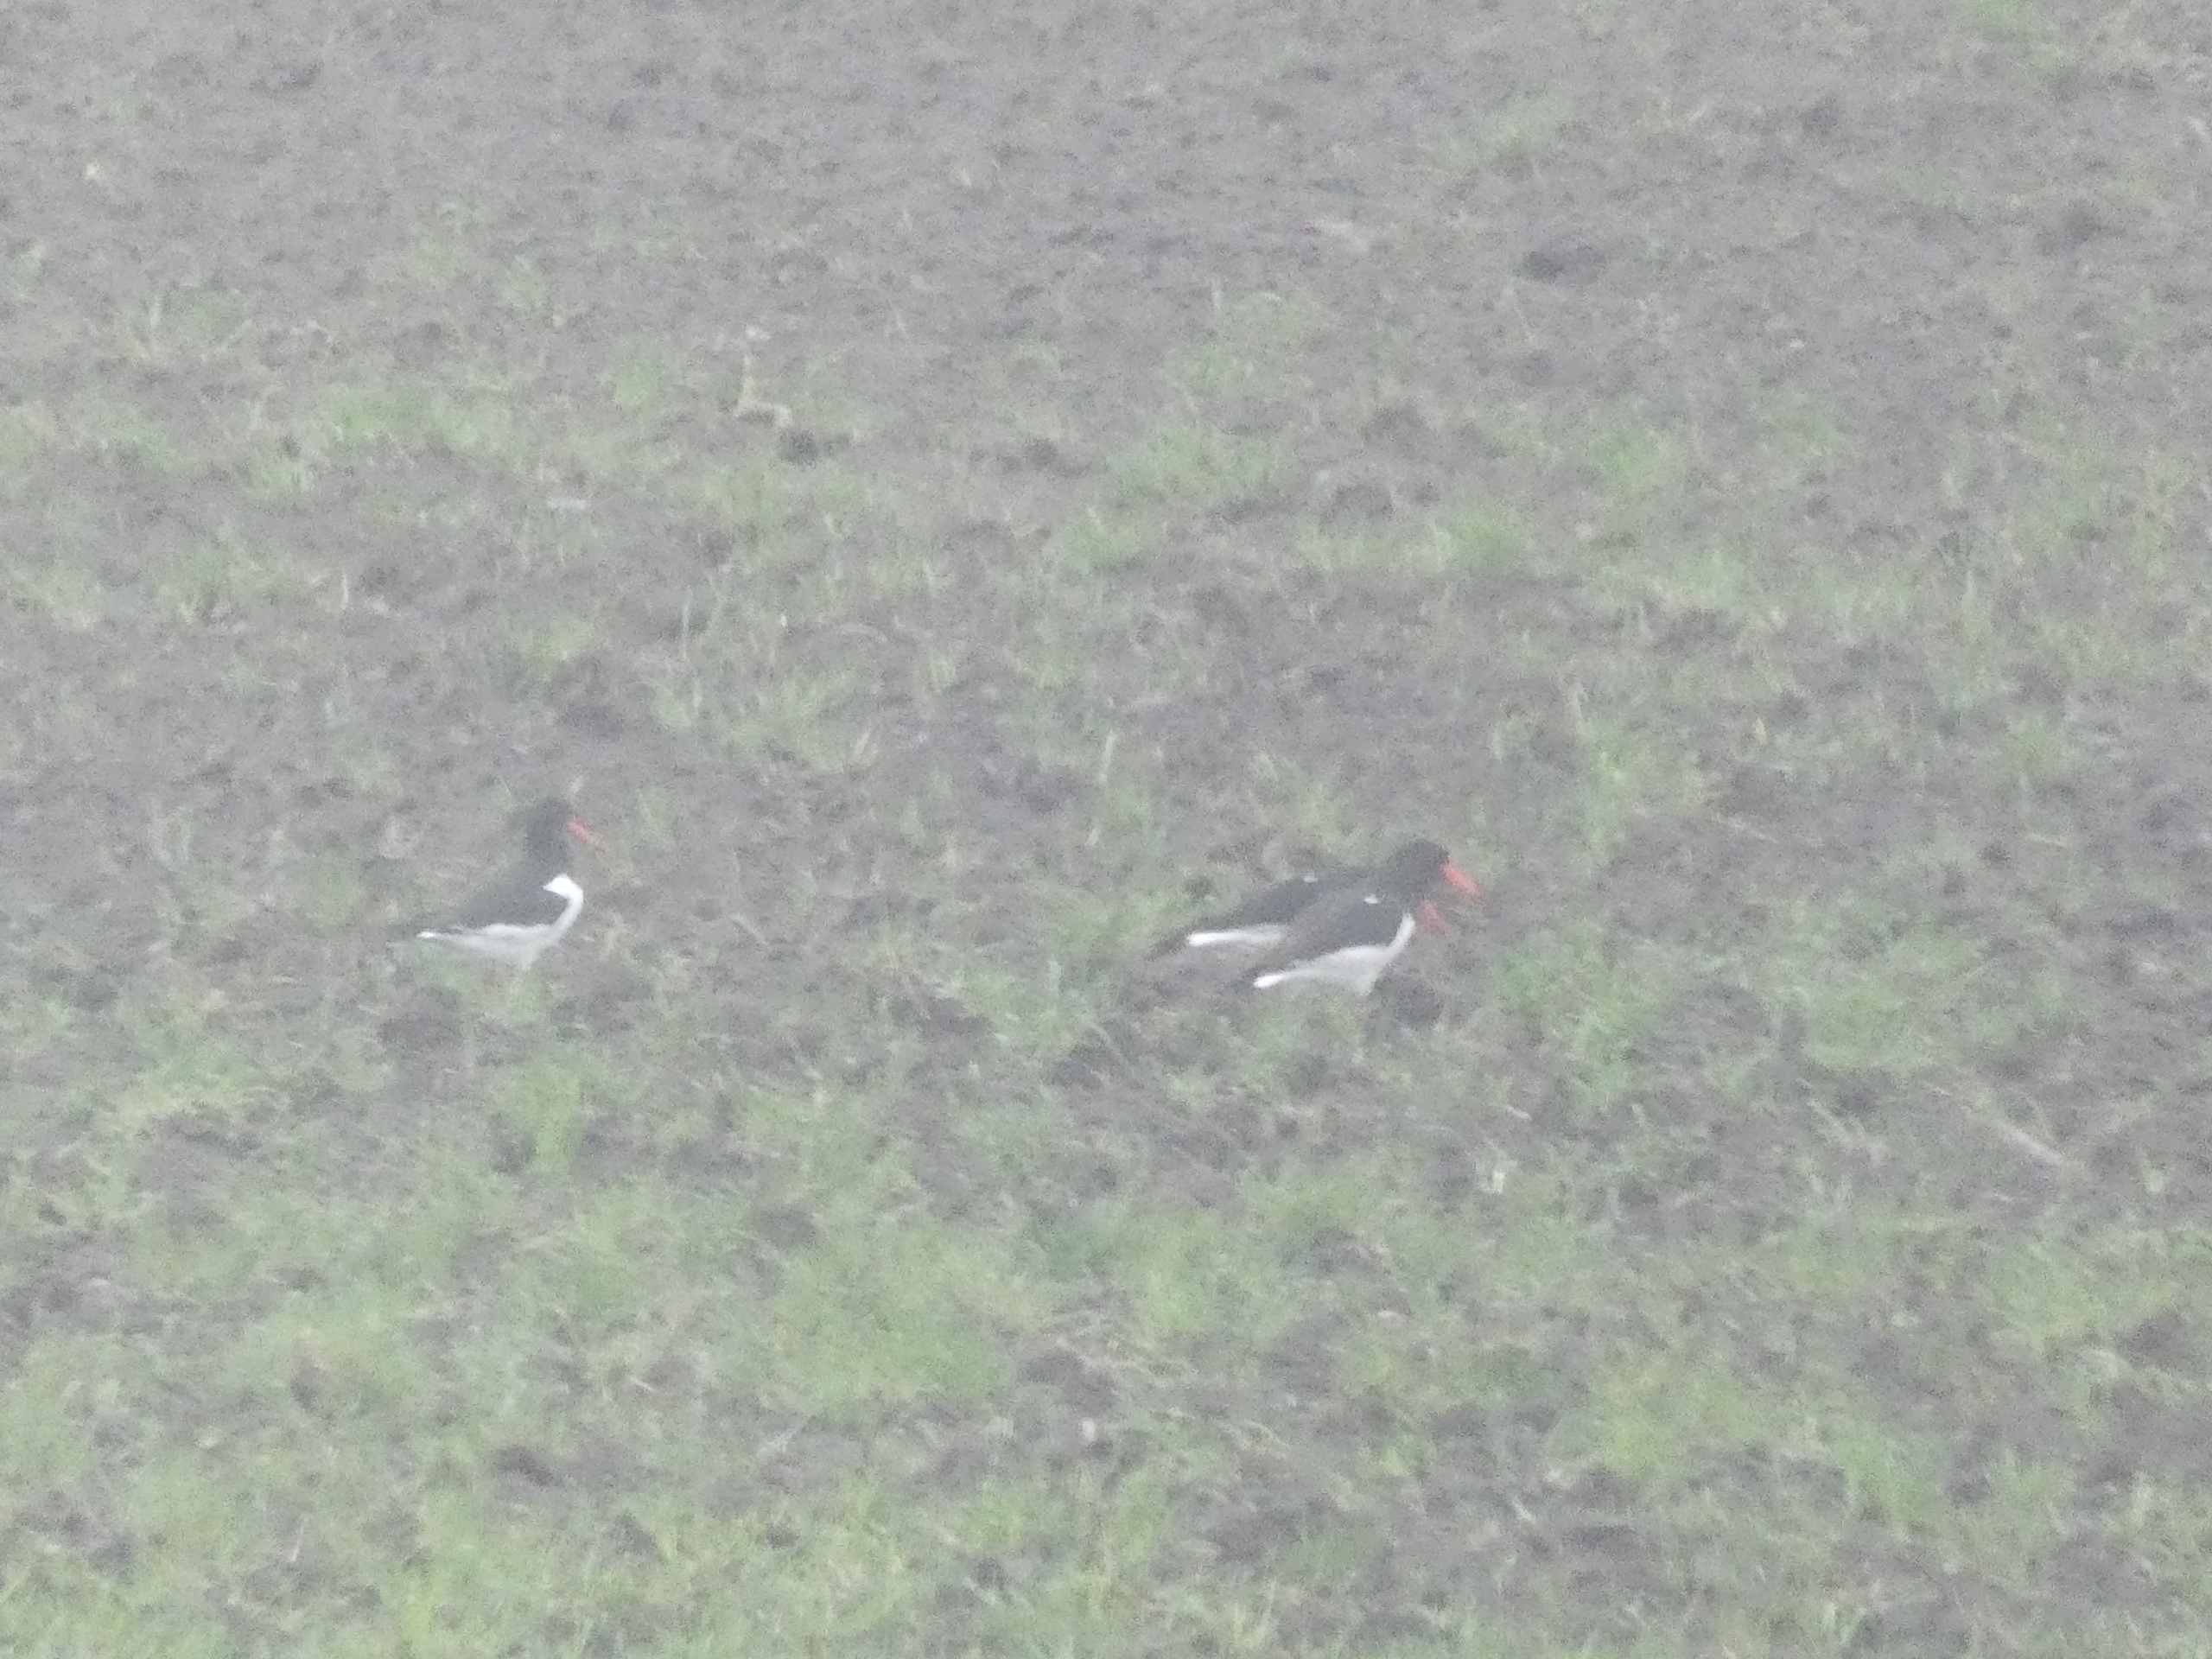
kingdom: Animalia
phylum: Chordata
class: Aves
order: Charadriiformes
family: Haematopodidae
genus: Haematopus
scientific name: Haematopus ostralegus
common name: Strandskade
